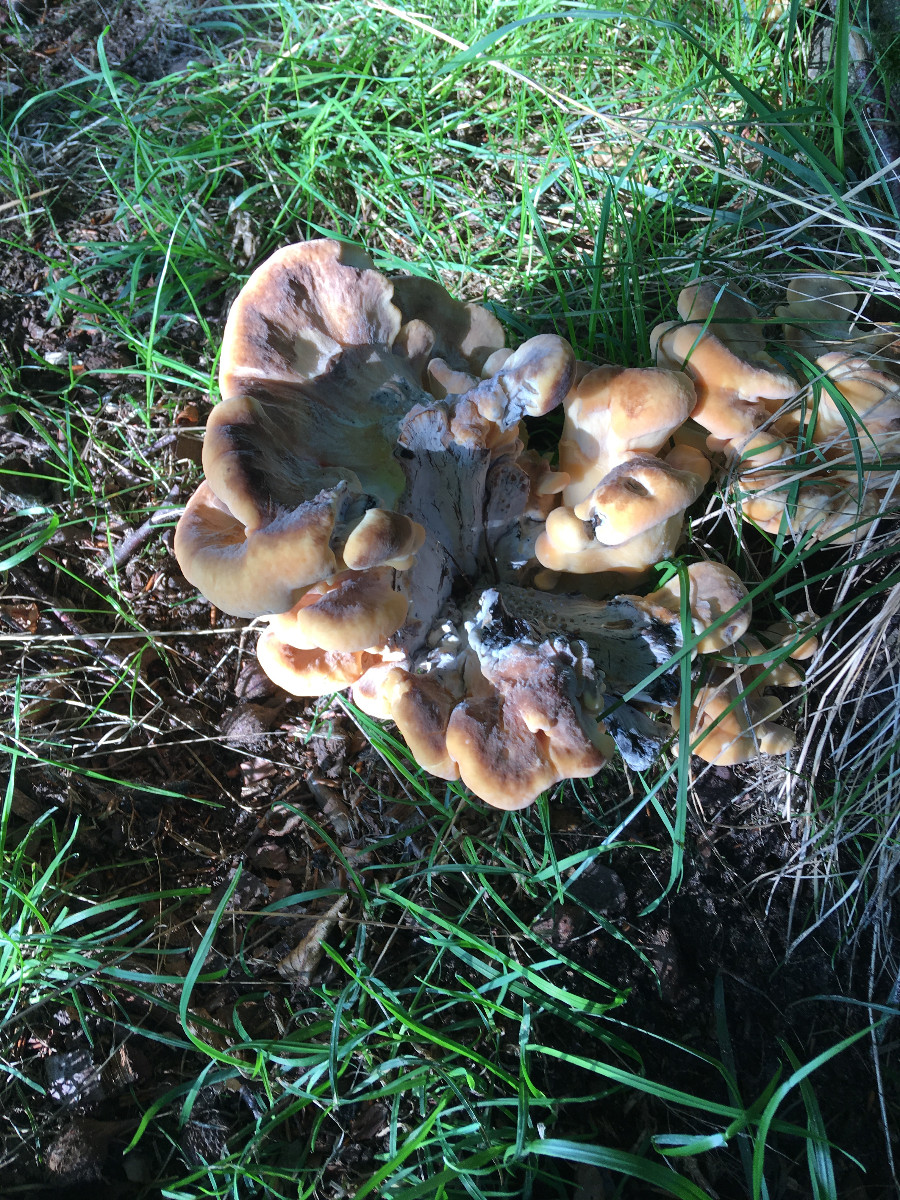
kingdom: Fungi
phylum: Basidiomycota
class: Agaricomycetes
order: Polyporales
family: Meripilaceae
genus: Meripilus
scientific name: Meripilus giganteus
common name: kæmpeporesvamp
